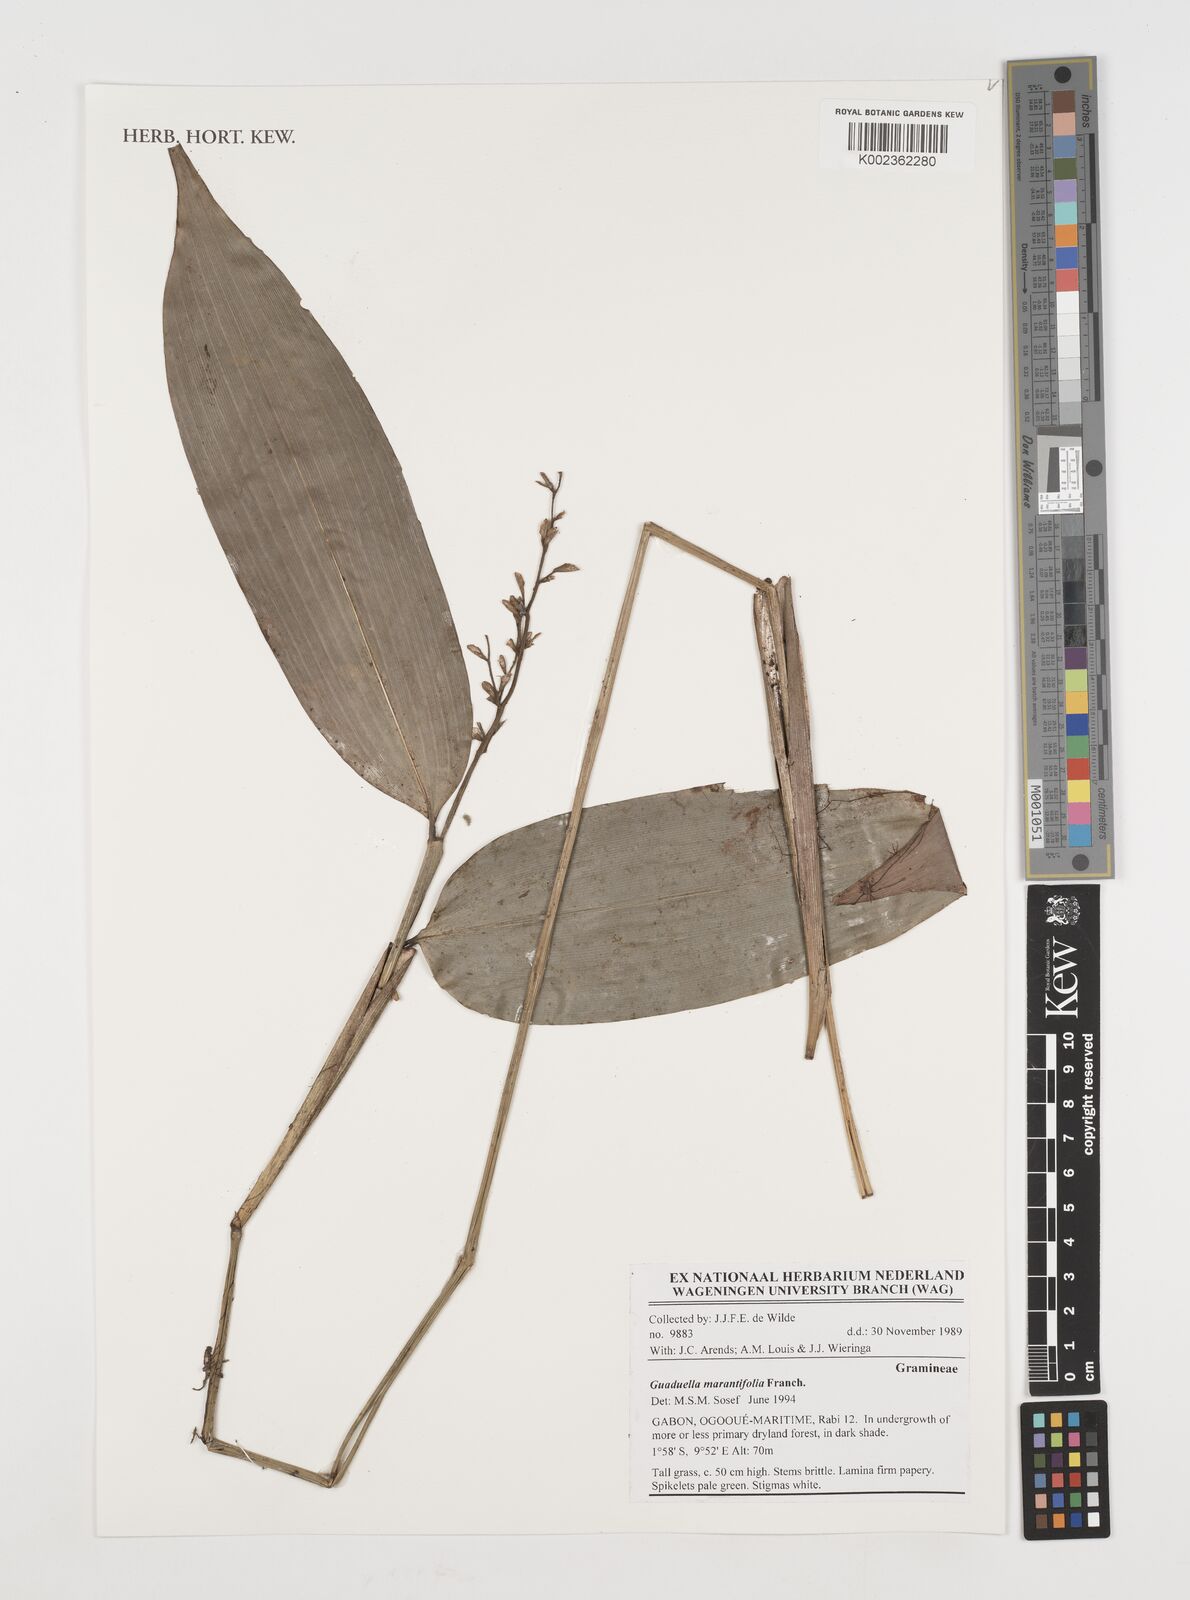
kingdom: Plantae
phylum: Tracheophyta
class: Liliopsida
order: Poales
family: Poaceae
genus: Guaduella
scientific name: Guaduella marantifolia
